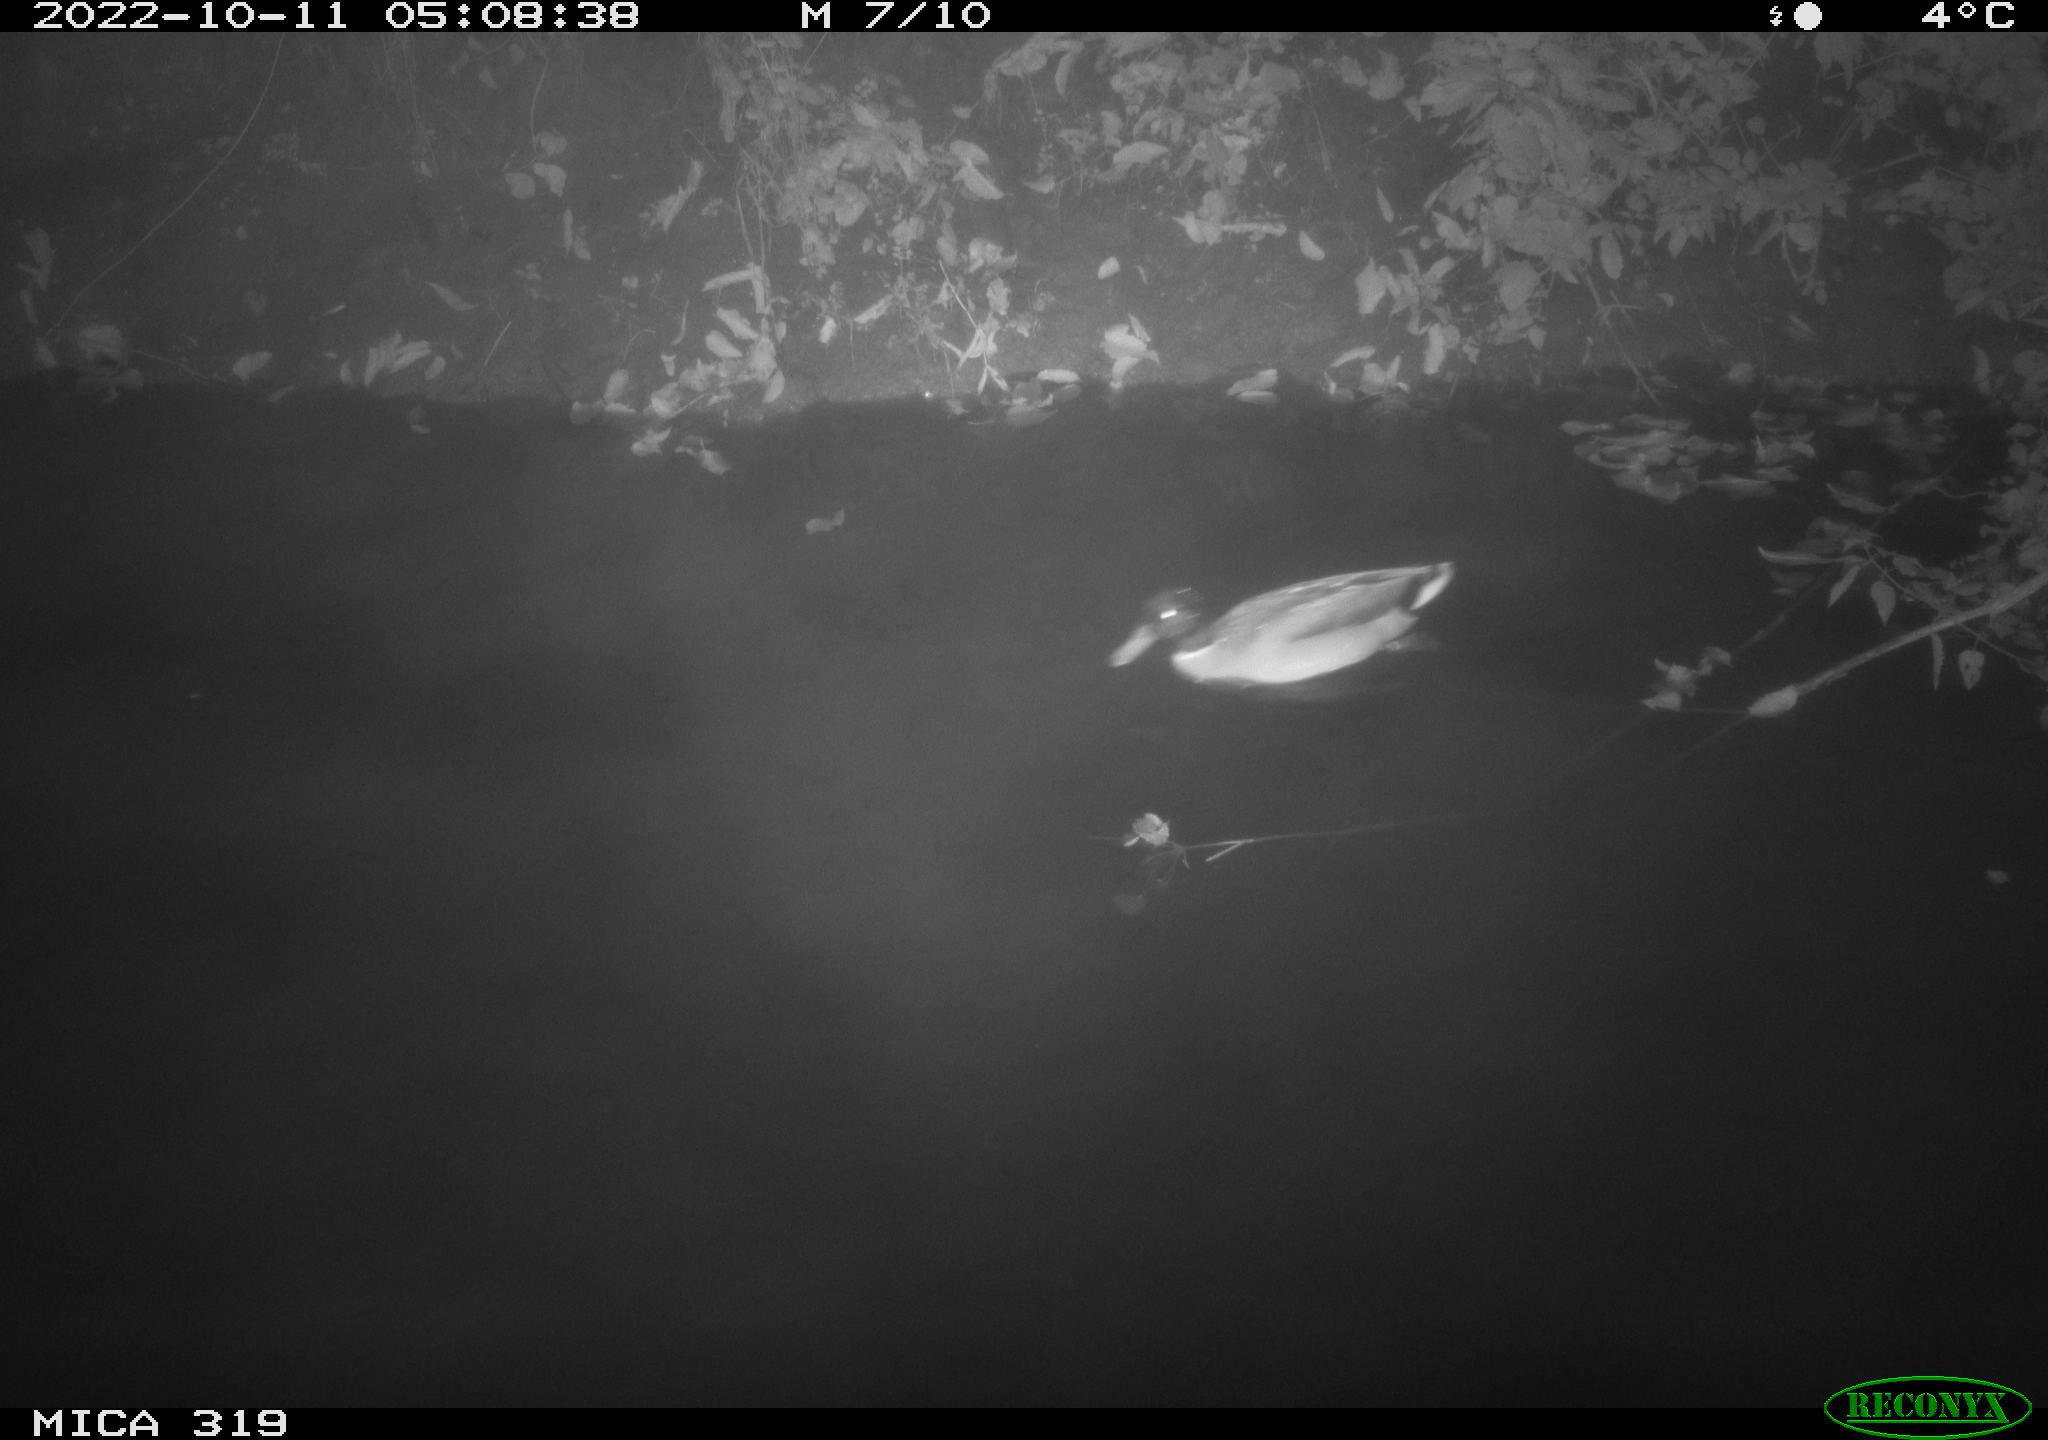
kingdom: Animalia
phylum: Chordata
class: Aves
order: Anseriformes
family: Anatidae
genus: Anas
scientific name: Anas
